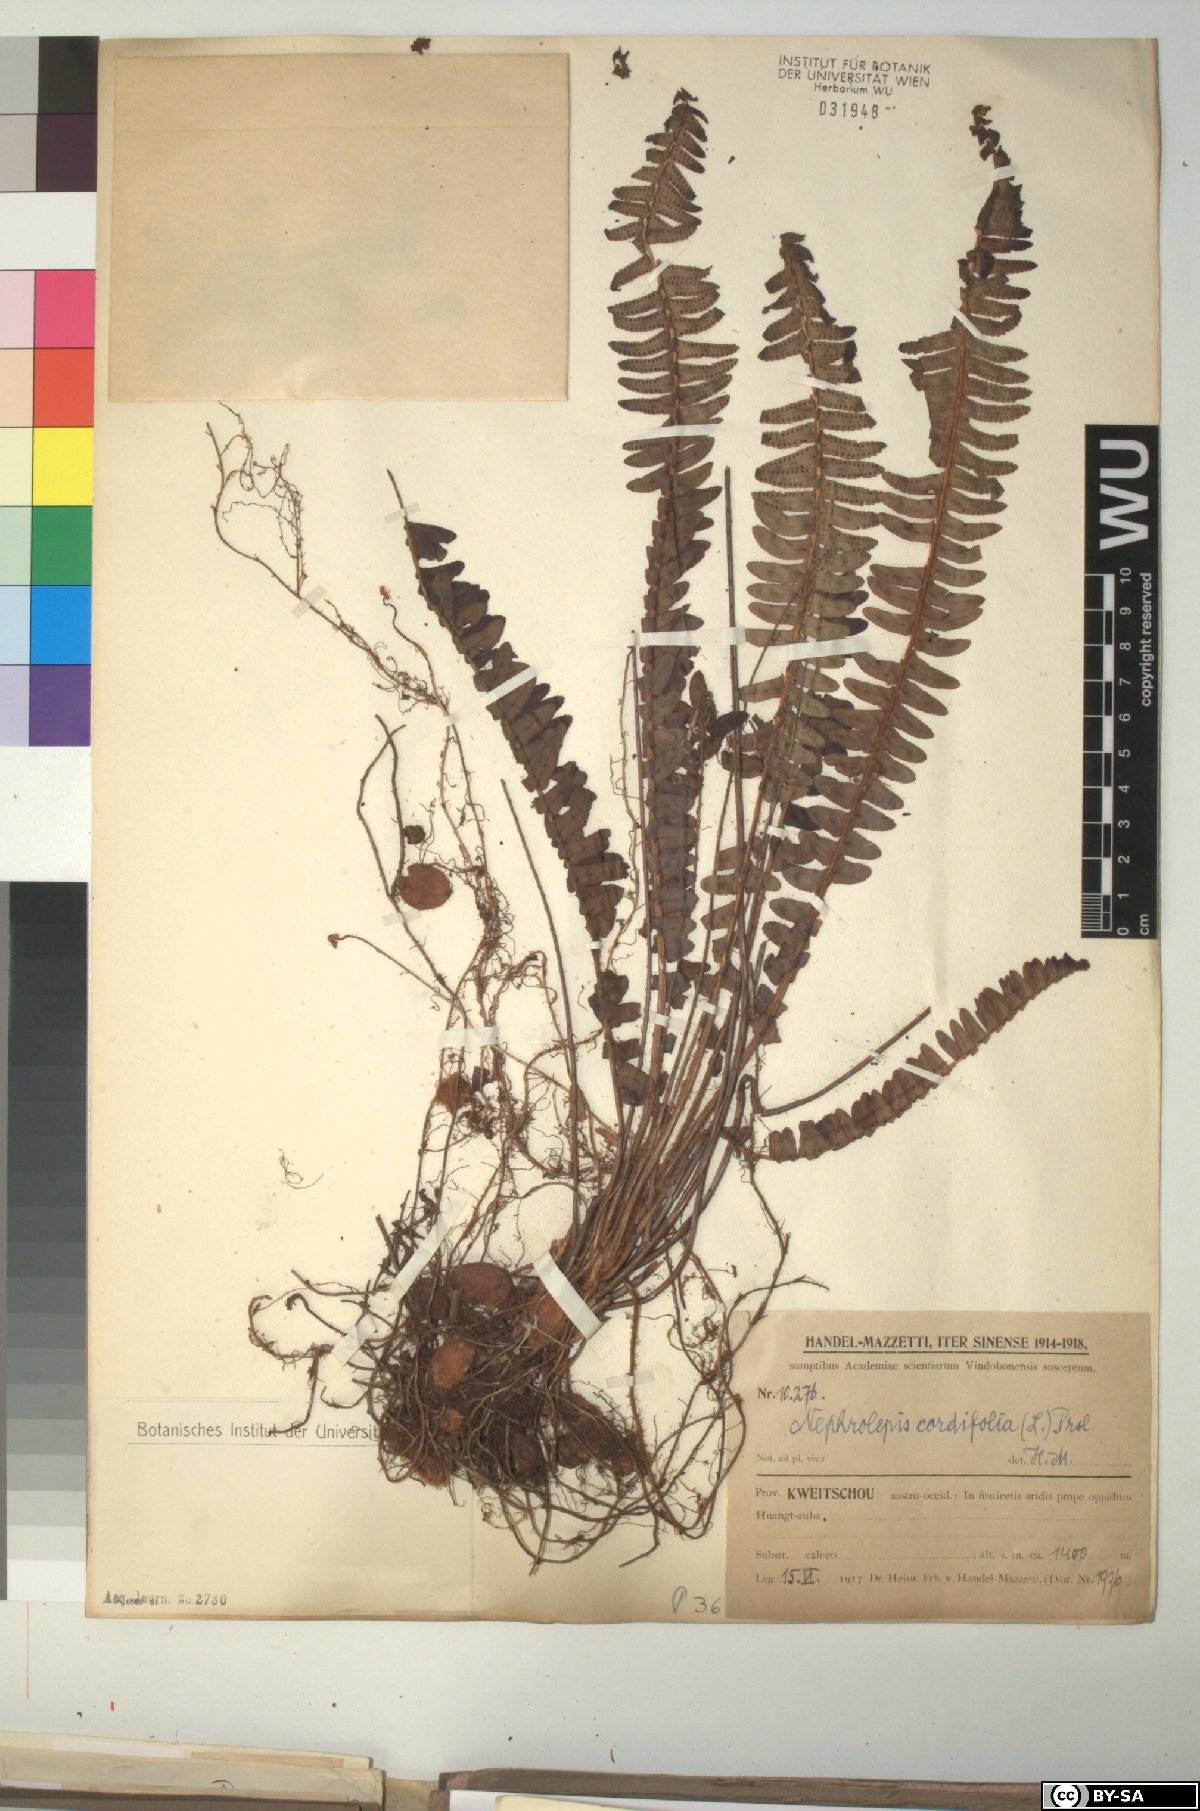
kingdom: Plantae
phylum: Tracheophyta
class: Polypodiopsida
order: Polypodiales
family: Nephrolepidaceae
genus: Nephrolepis
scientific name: Nephrolepis cordifolia
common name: Narrow swordfern
